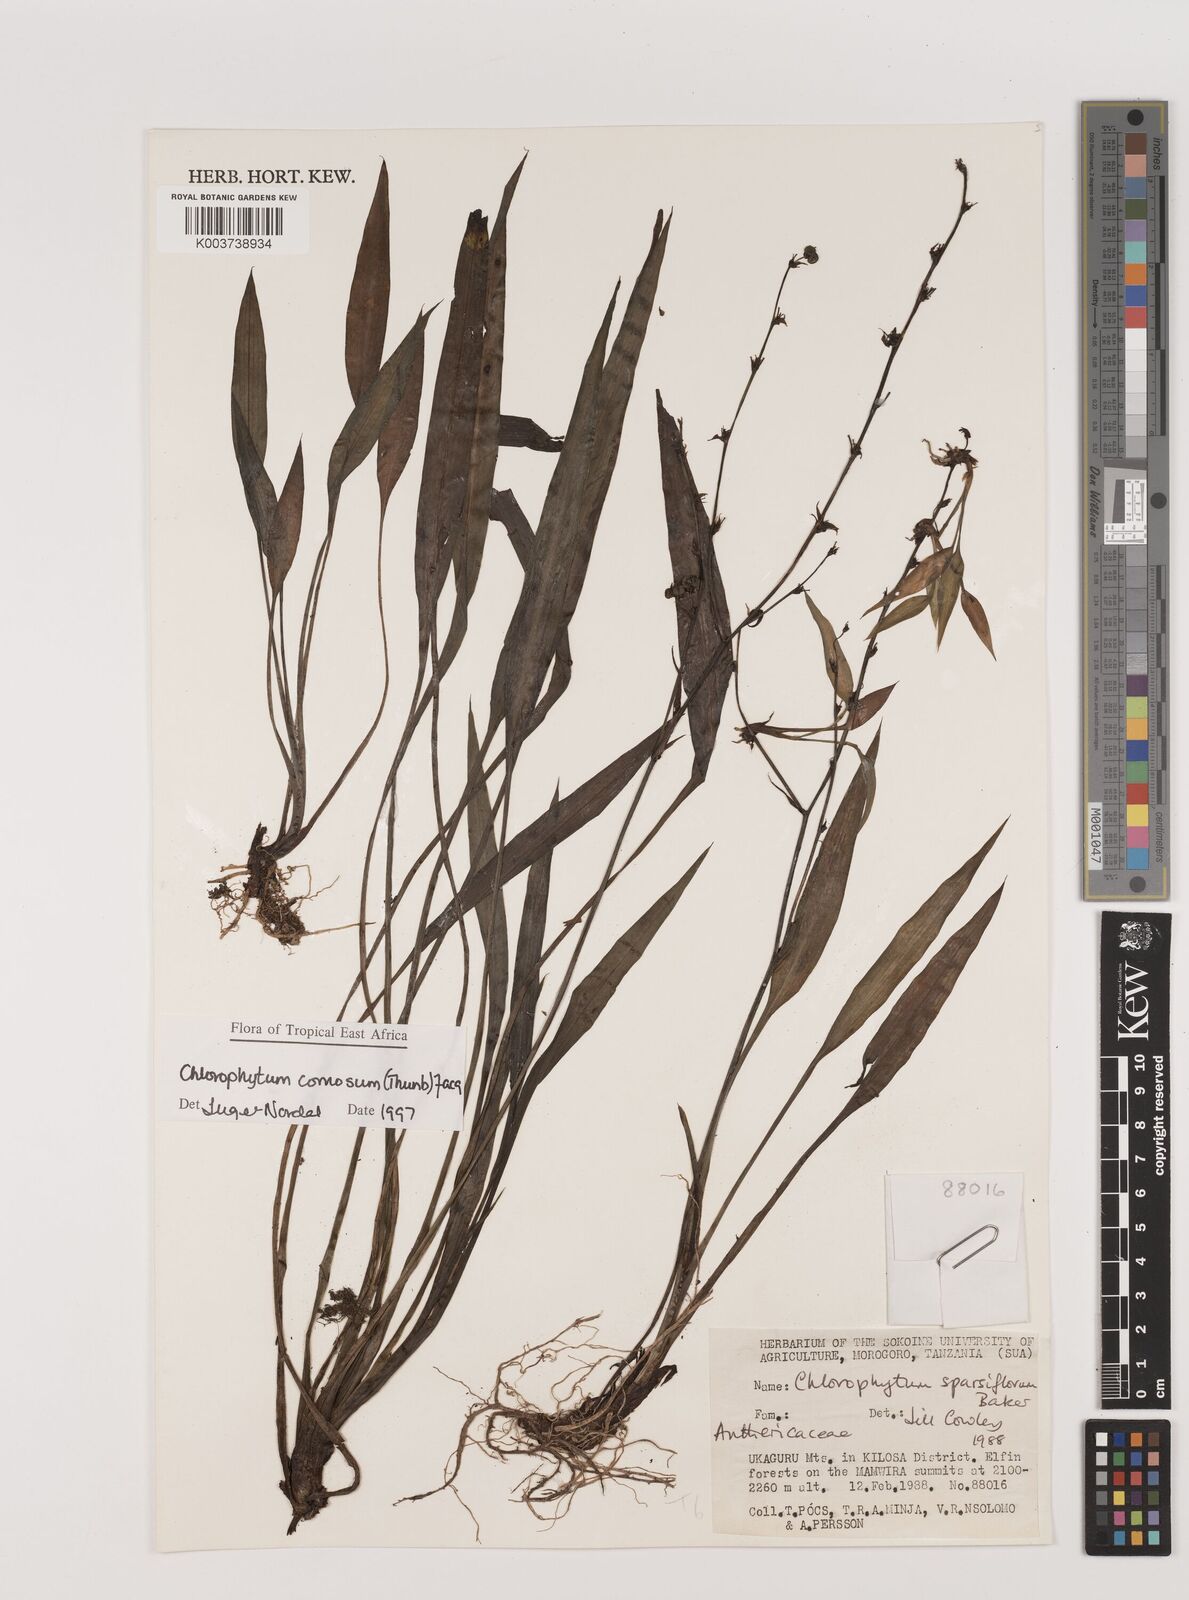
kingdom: Plantae
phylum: Tracheophyta
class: Liliopsida
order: Asparagales
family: Asparagaceae
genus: Chlorophytum
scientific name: Chlorophytum comosum
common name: Spider plant
